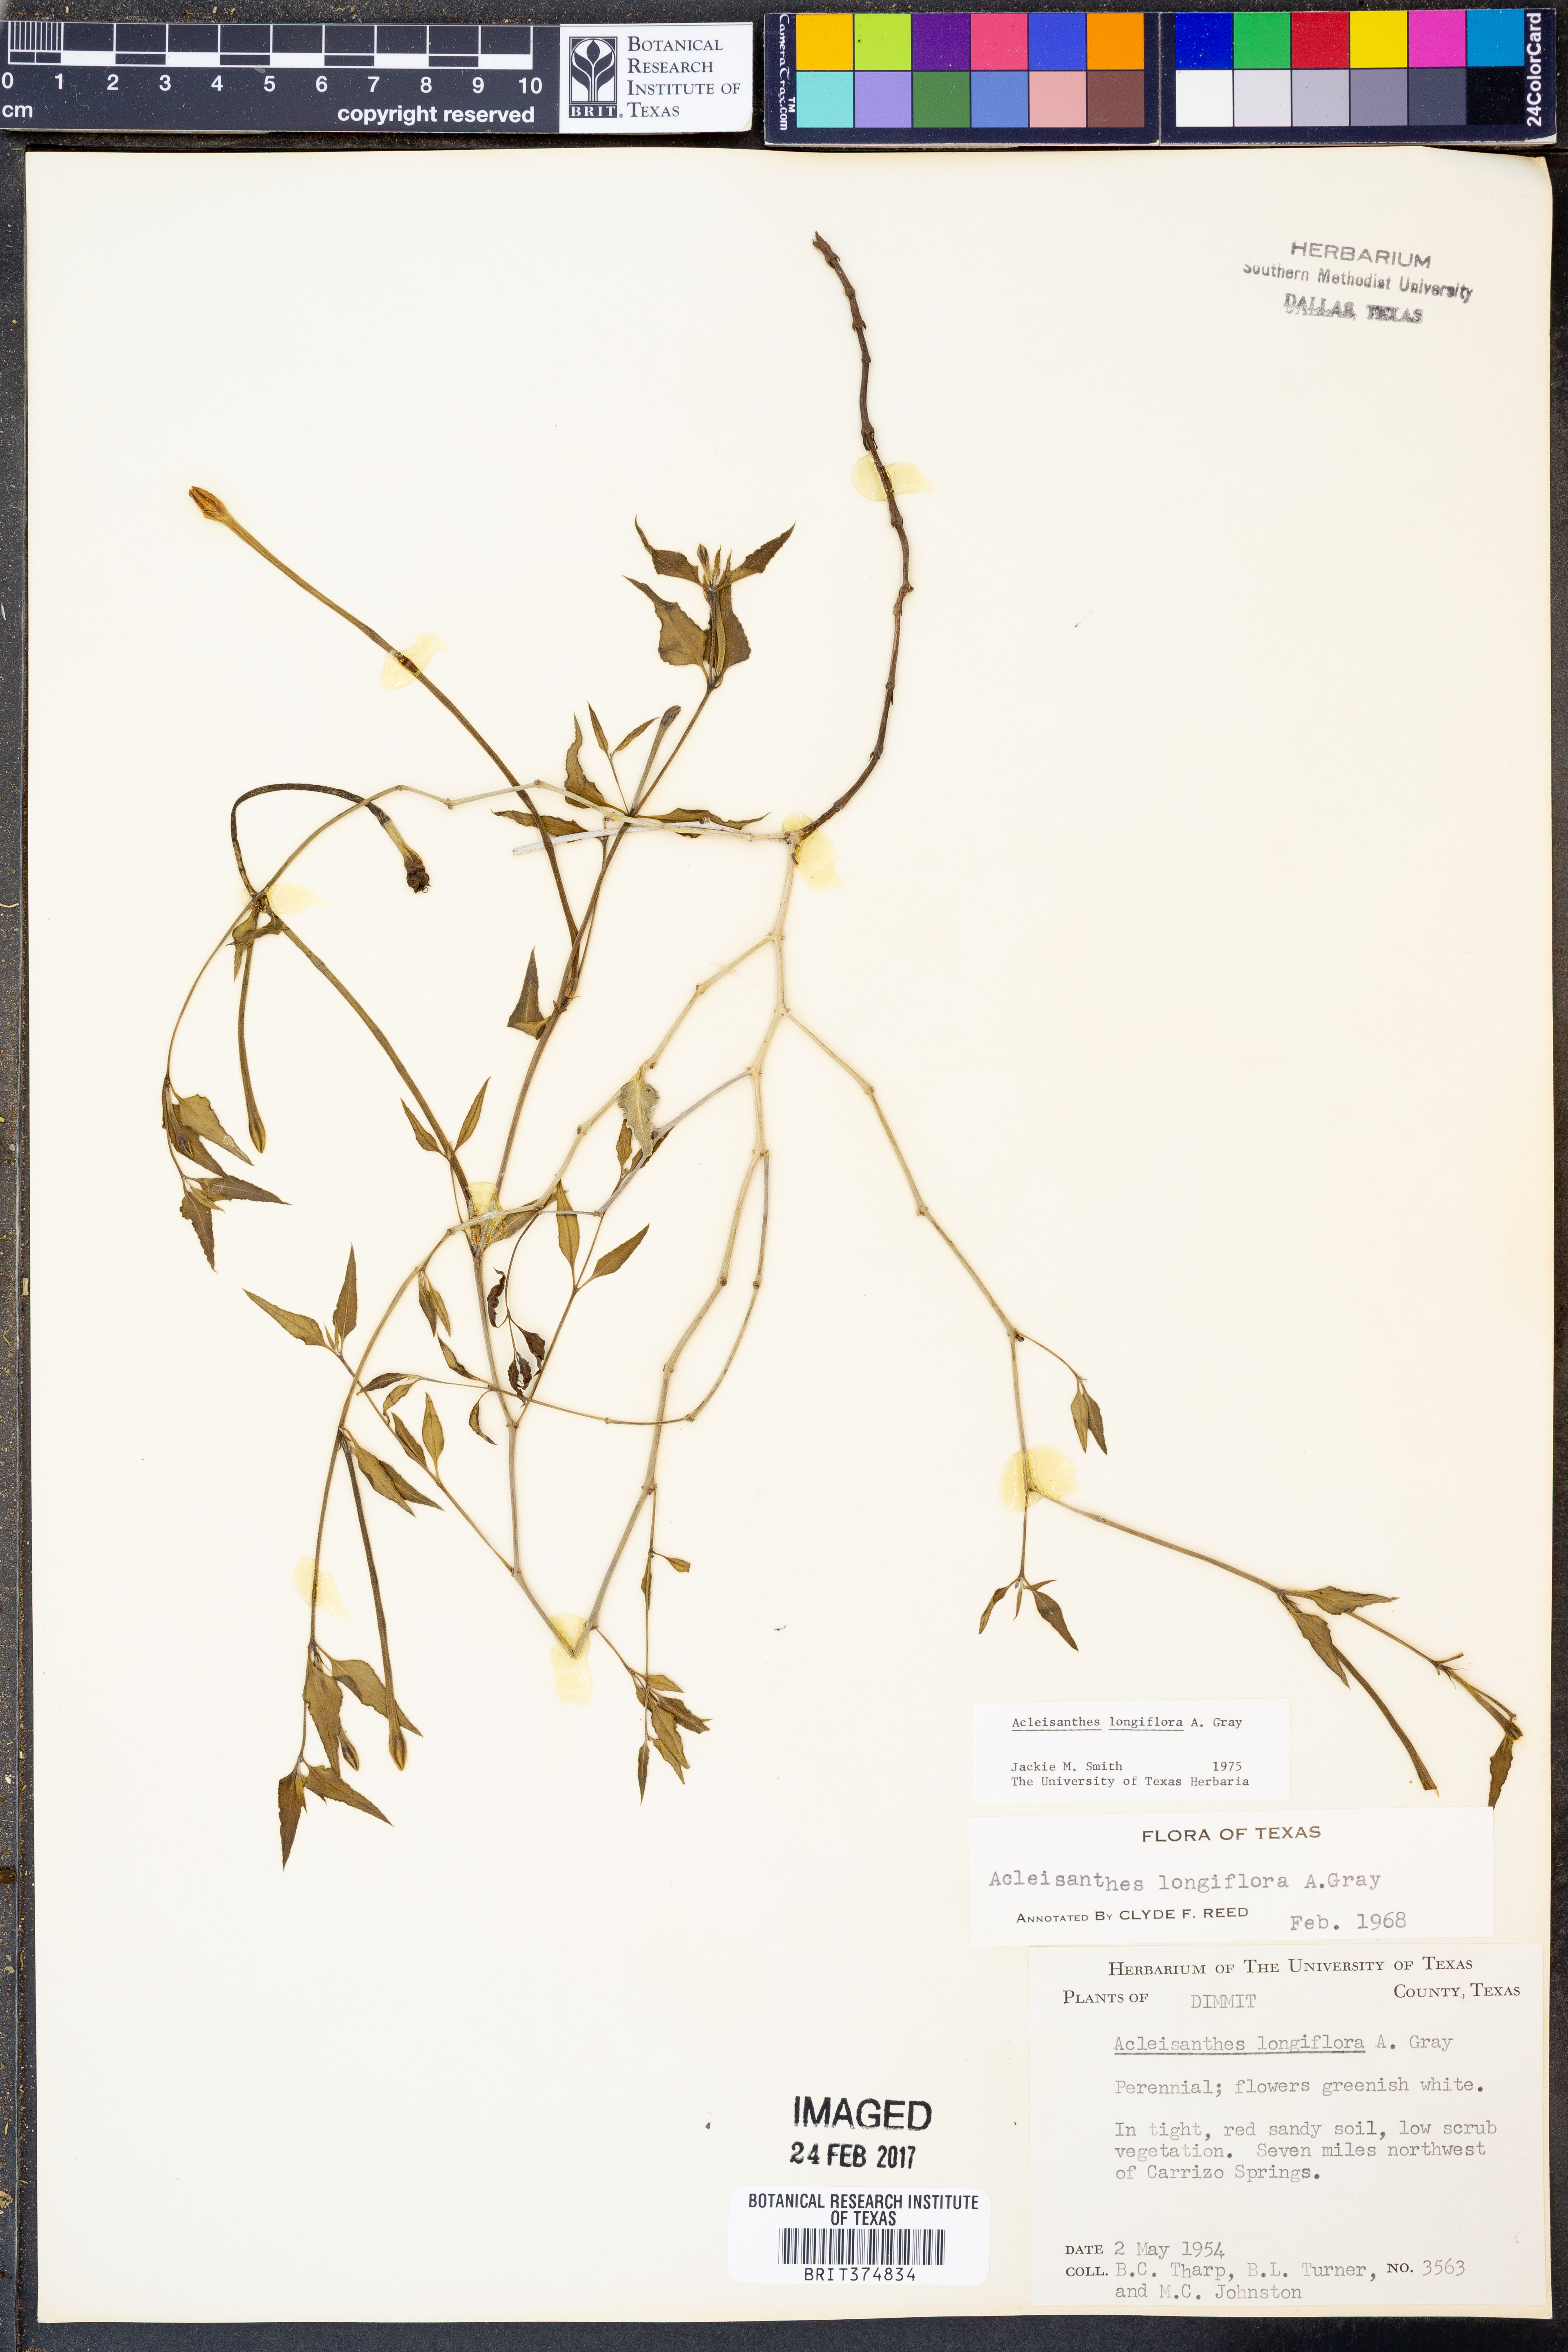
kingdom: Plantae
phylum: Tracheophyta
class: Magnoliopsida
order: Caryophyllales
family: Nyctaginaceae
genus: Acleisanthes
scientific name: Acleisanthes longiflora
